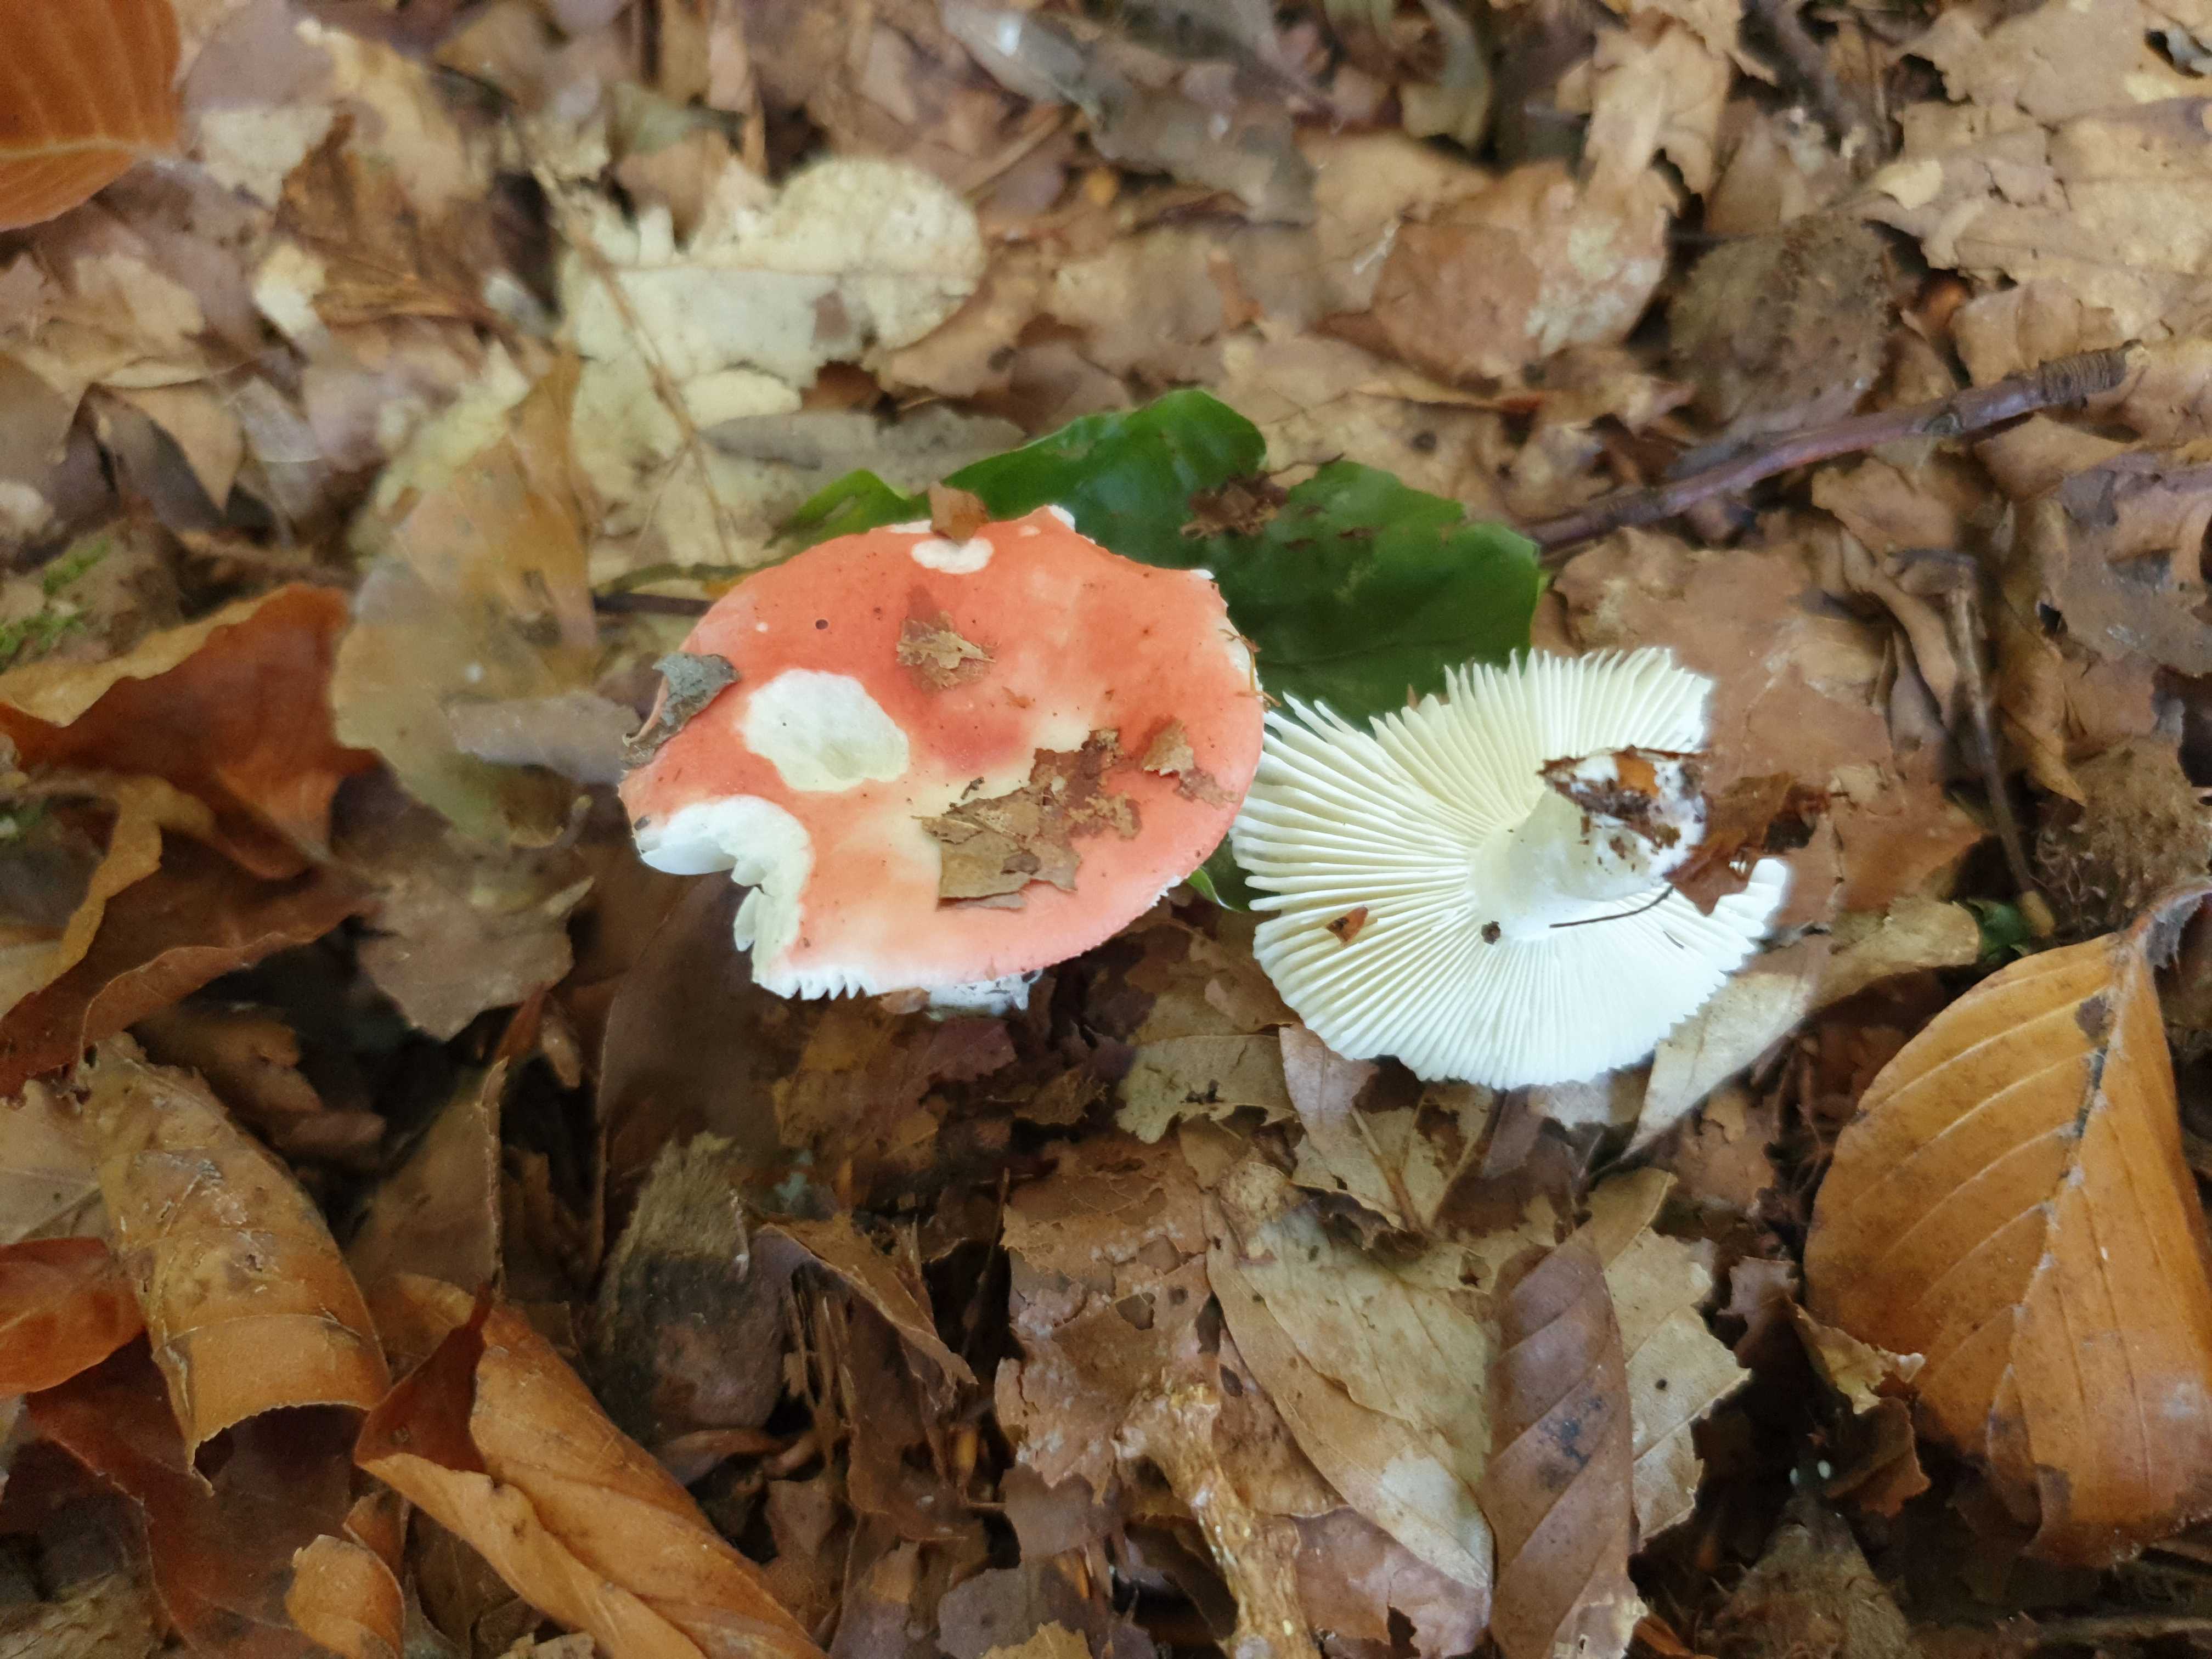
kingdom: Fungi
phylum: Basidiomycota
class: Agaricomycetes
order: Russulales
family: Russulaceae
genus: Russula
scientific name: Russula nobilis
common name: lille gift-skørhat
